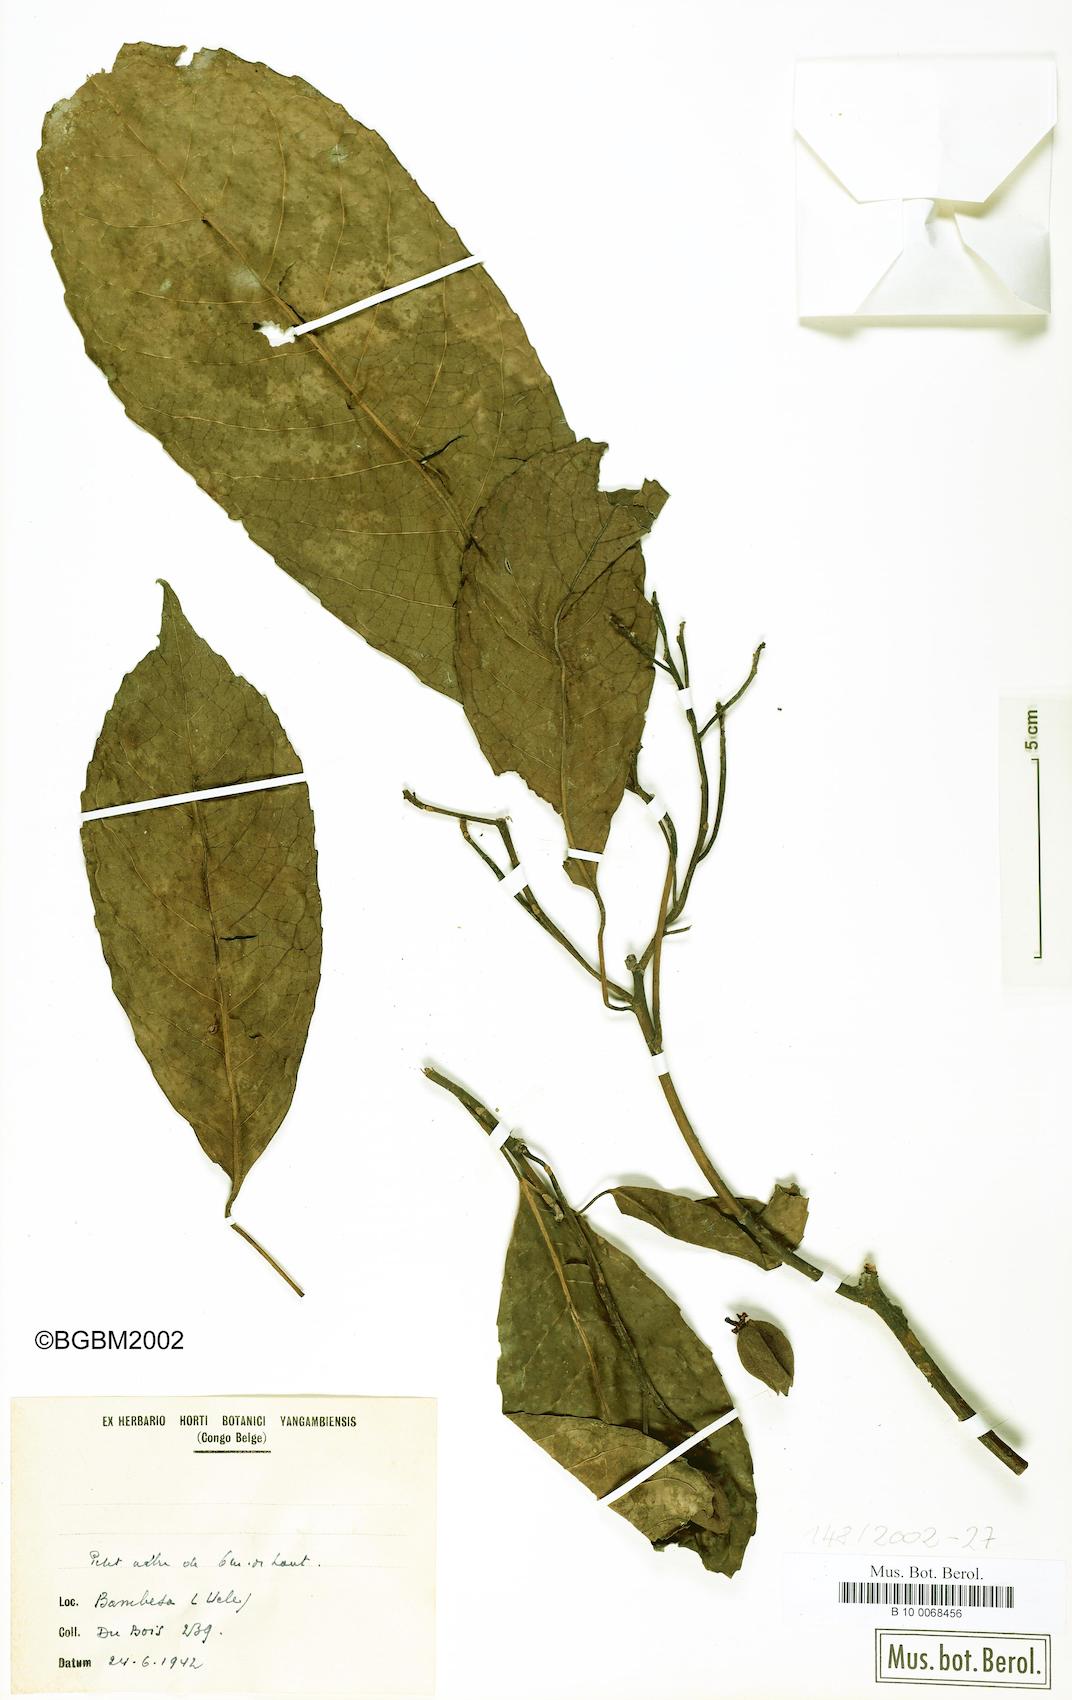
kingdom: Plantae
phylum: Tracheophyta
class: Magnoliopsida
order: Malpighiales
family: Violaceae
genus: Rinorea
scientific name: Rinorea
